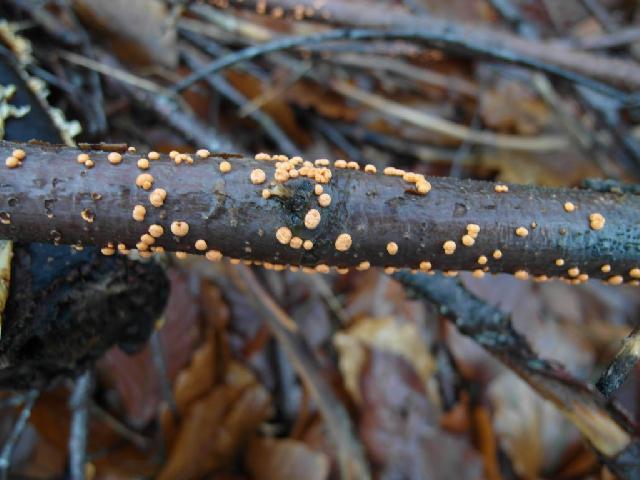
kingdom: Fungi
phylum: Ascomycota
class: Sordariomycetes
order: Hypocreales
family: Nectriaceae
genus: Nectria
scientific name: Nectria cinnabarina
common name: almindelig cinnobersvamp
